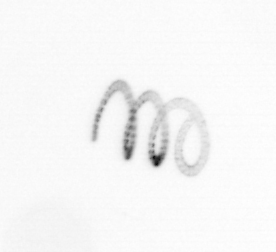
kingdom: Chromista
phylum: Ochrophyta
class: Bacillariophyceae
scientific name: Bacillariophyceae
